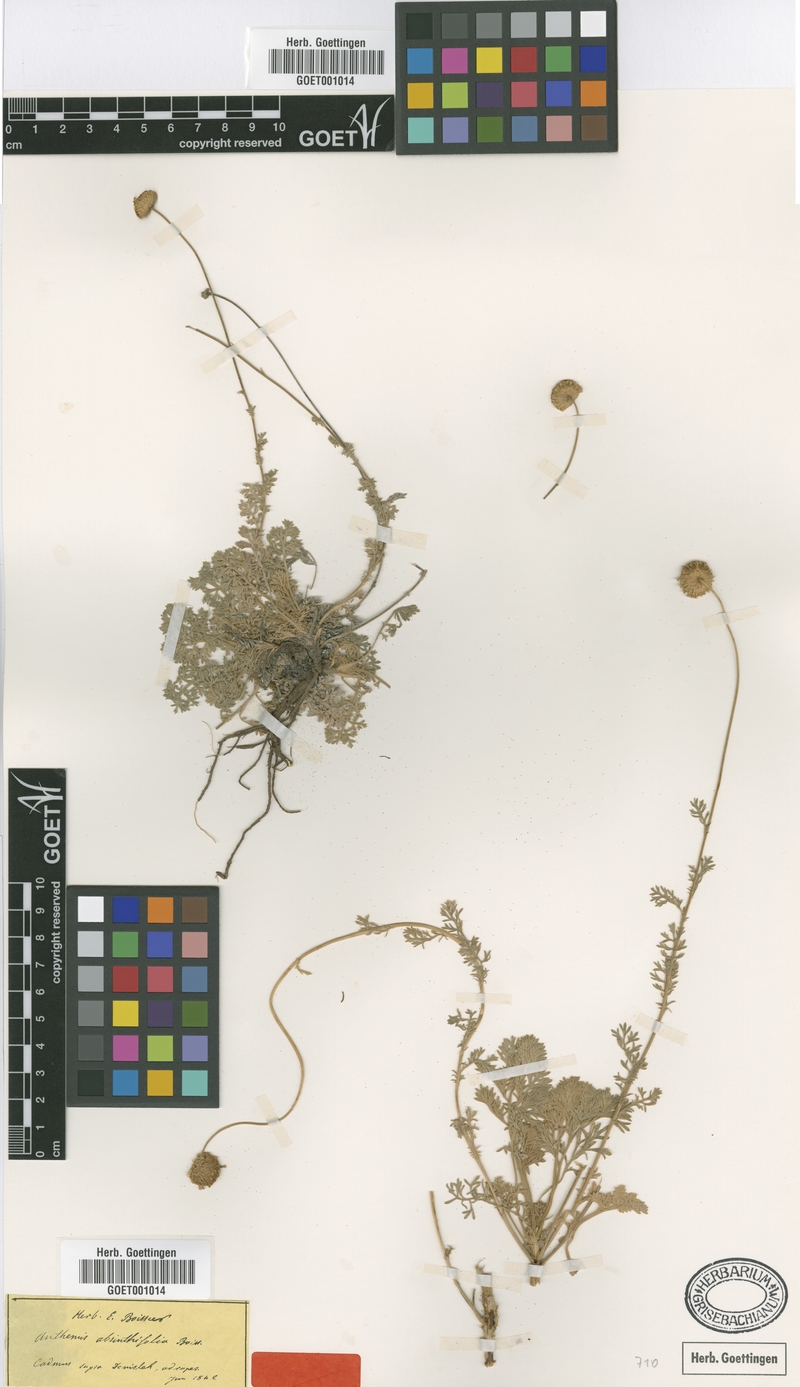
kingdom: Plantae
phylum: Tracheophyta
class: Magnoliopsida
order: Asterales
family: Asteraceae
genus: Anthemis
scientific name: Anthemis cretica
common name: Mountain dog-daisy
